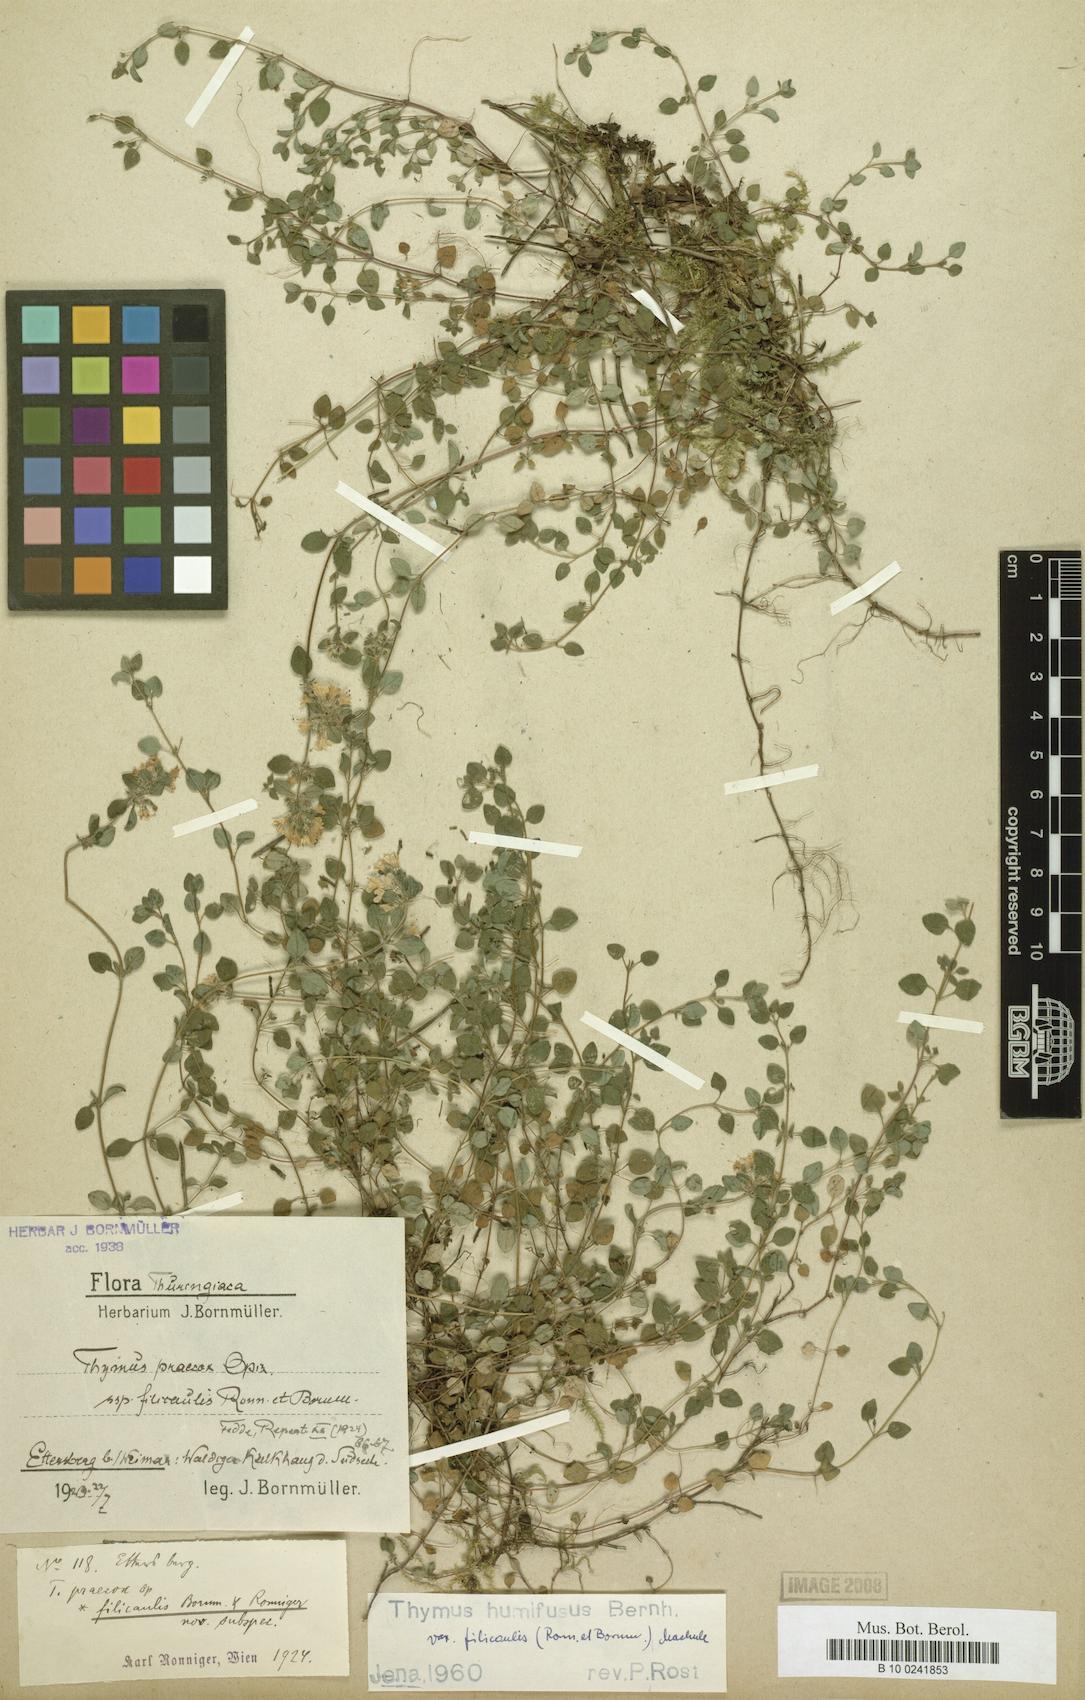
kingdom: Plantae
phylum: Tracheophyta
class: Magnoliopsida
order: Lamiales
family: Lamiaceae
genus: Thymus
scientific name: Thymus praecox
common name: Wild thyme
